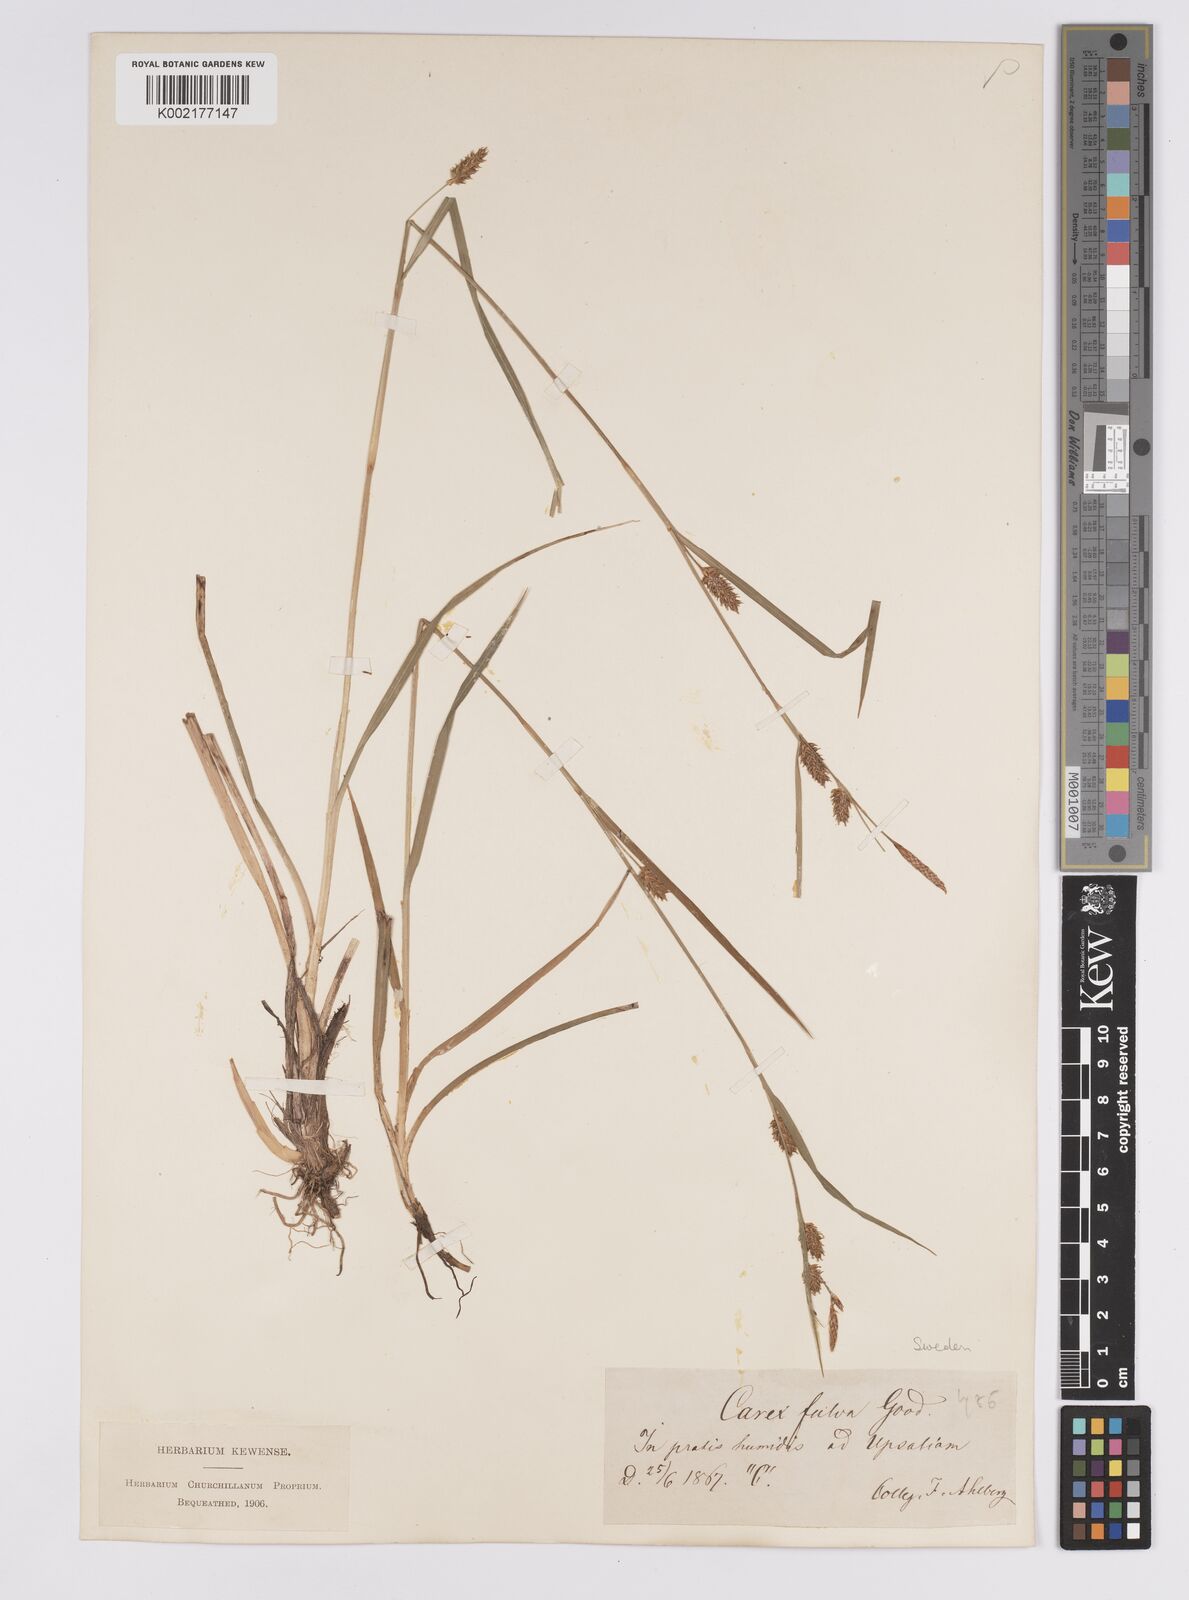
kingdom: Plantae
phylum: Tracheophyta
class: Liliopsida
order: Poales
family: Cyperaceae
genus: Carex
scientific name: Carex hostiana
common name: Tawny sedge
